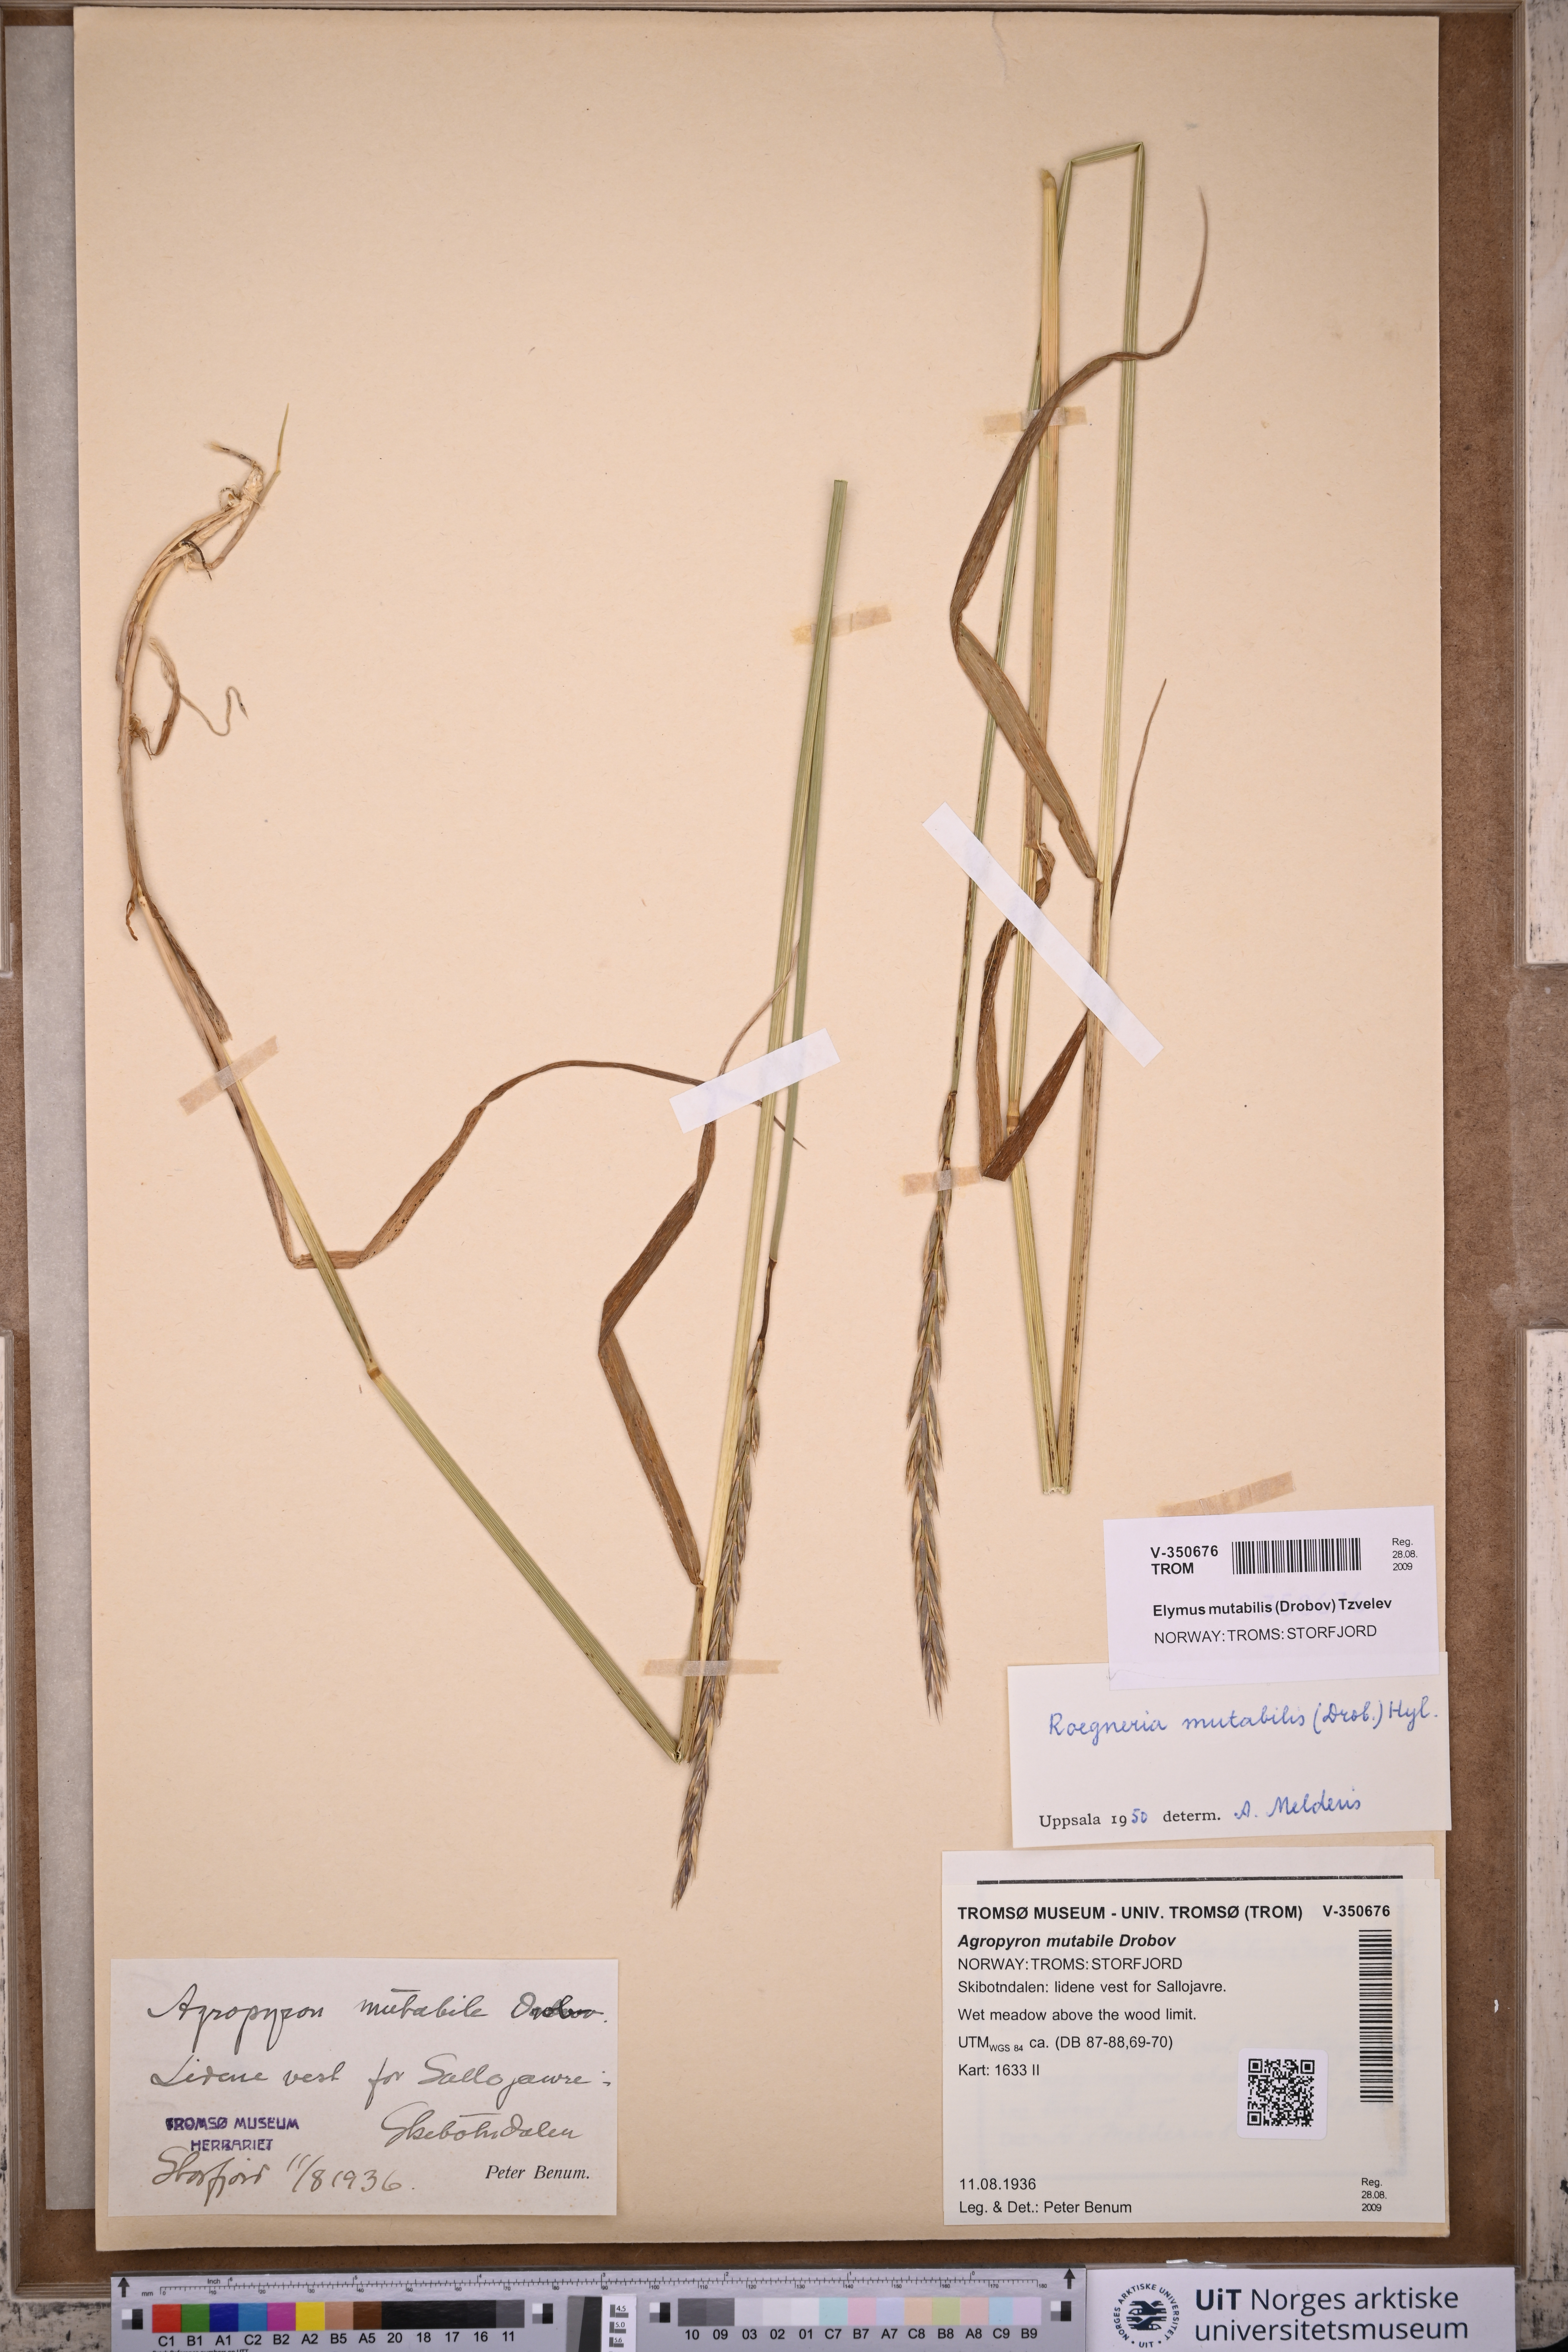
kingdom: Plantae
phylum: Tracheophyta
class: Liliopsida
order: Poales
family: Poaceae
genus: Elymus
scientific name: Elymus mutabilis
